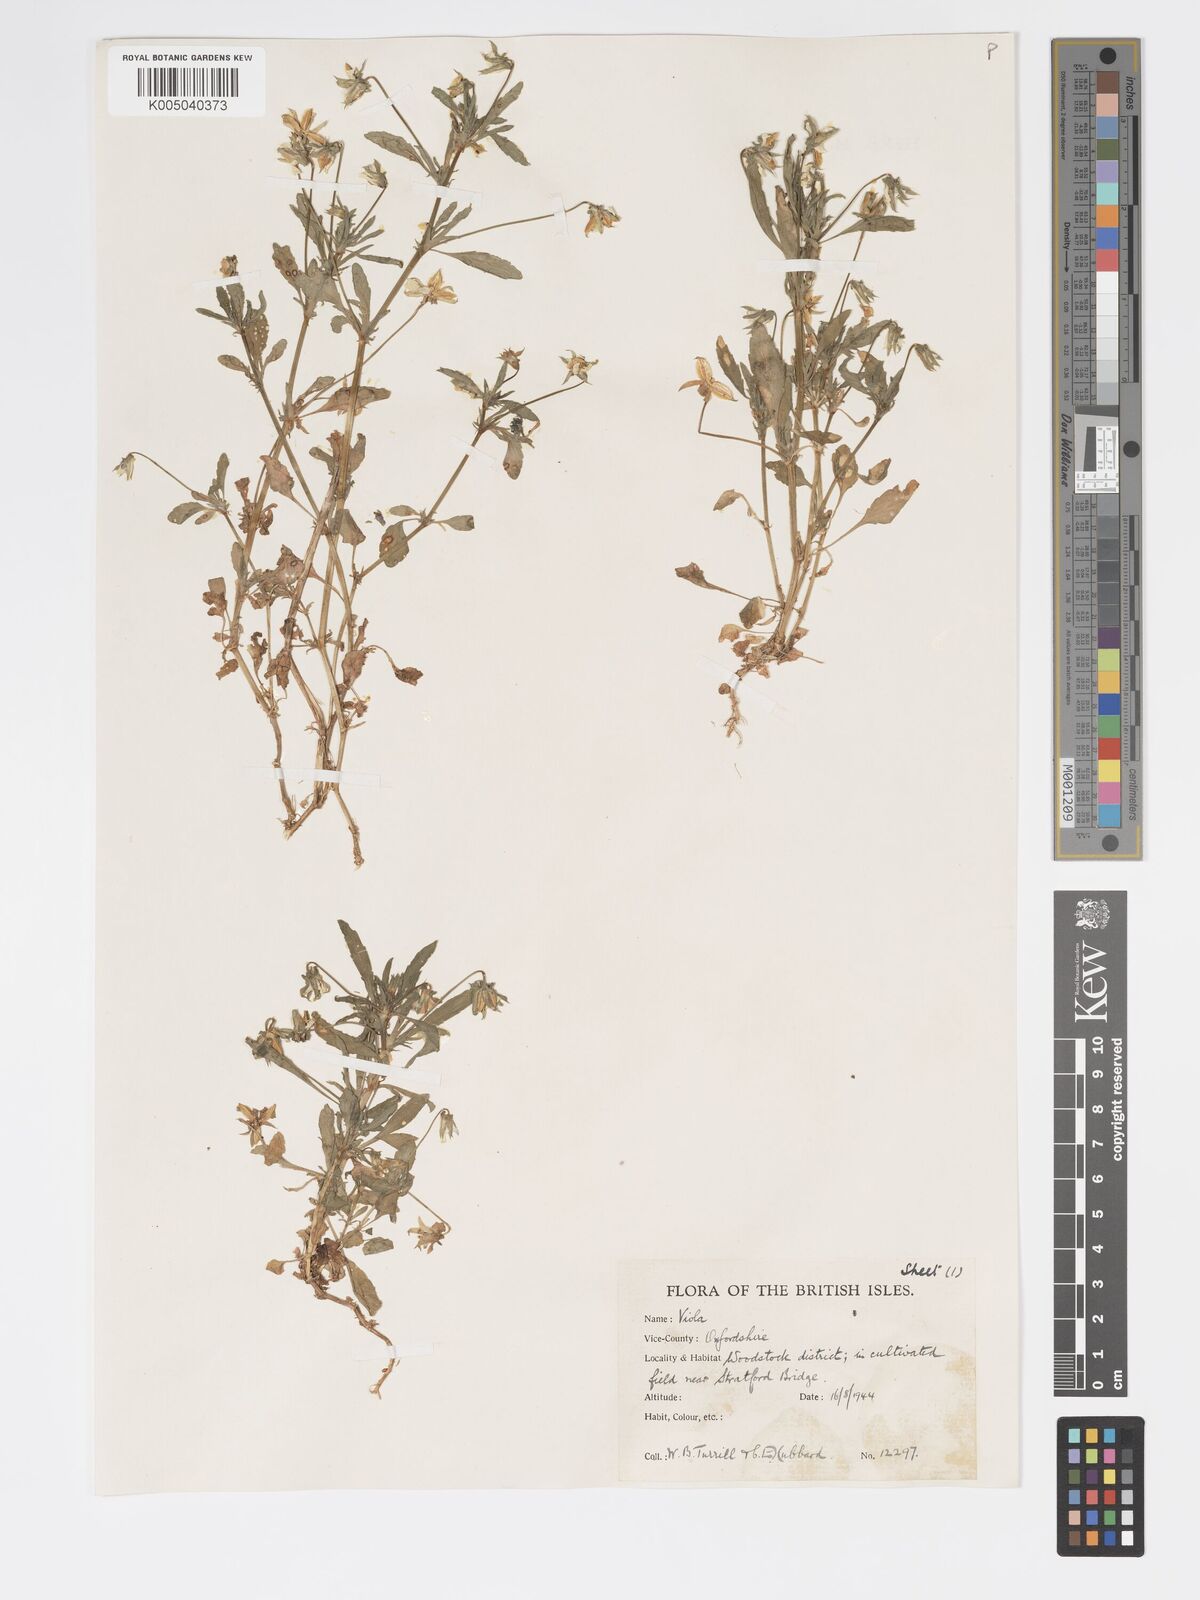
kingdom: Plantae
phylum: Tracheophyta
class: Magnoliopsida
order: Malpighiales
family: Violaceae
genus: Viola
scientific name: Viola arvensis
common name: Field pansy
